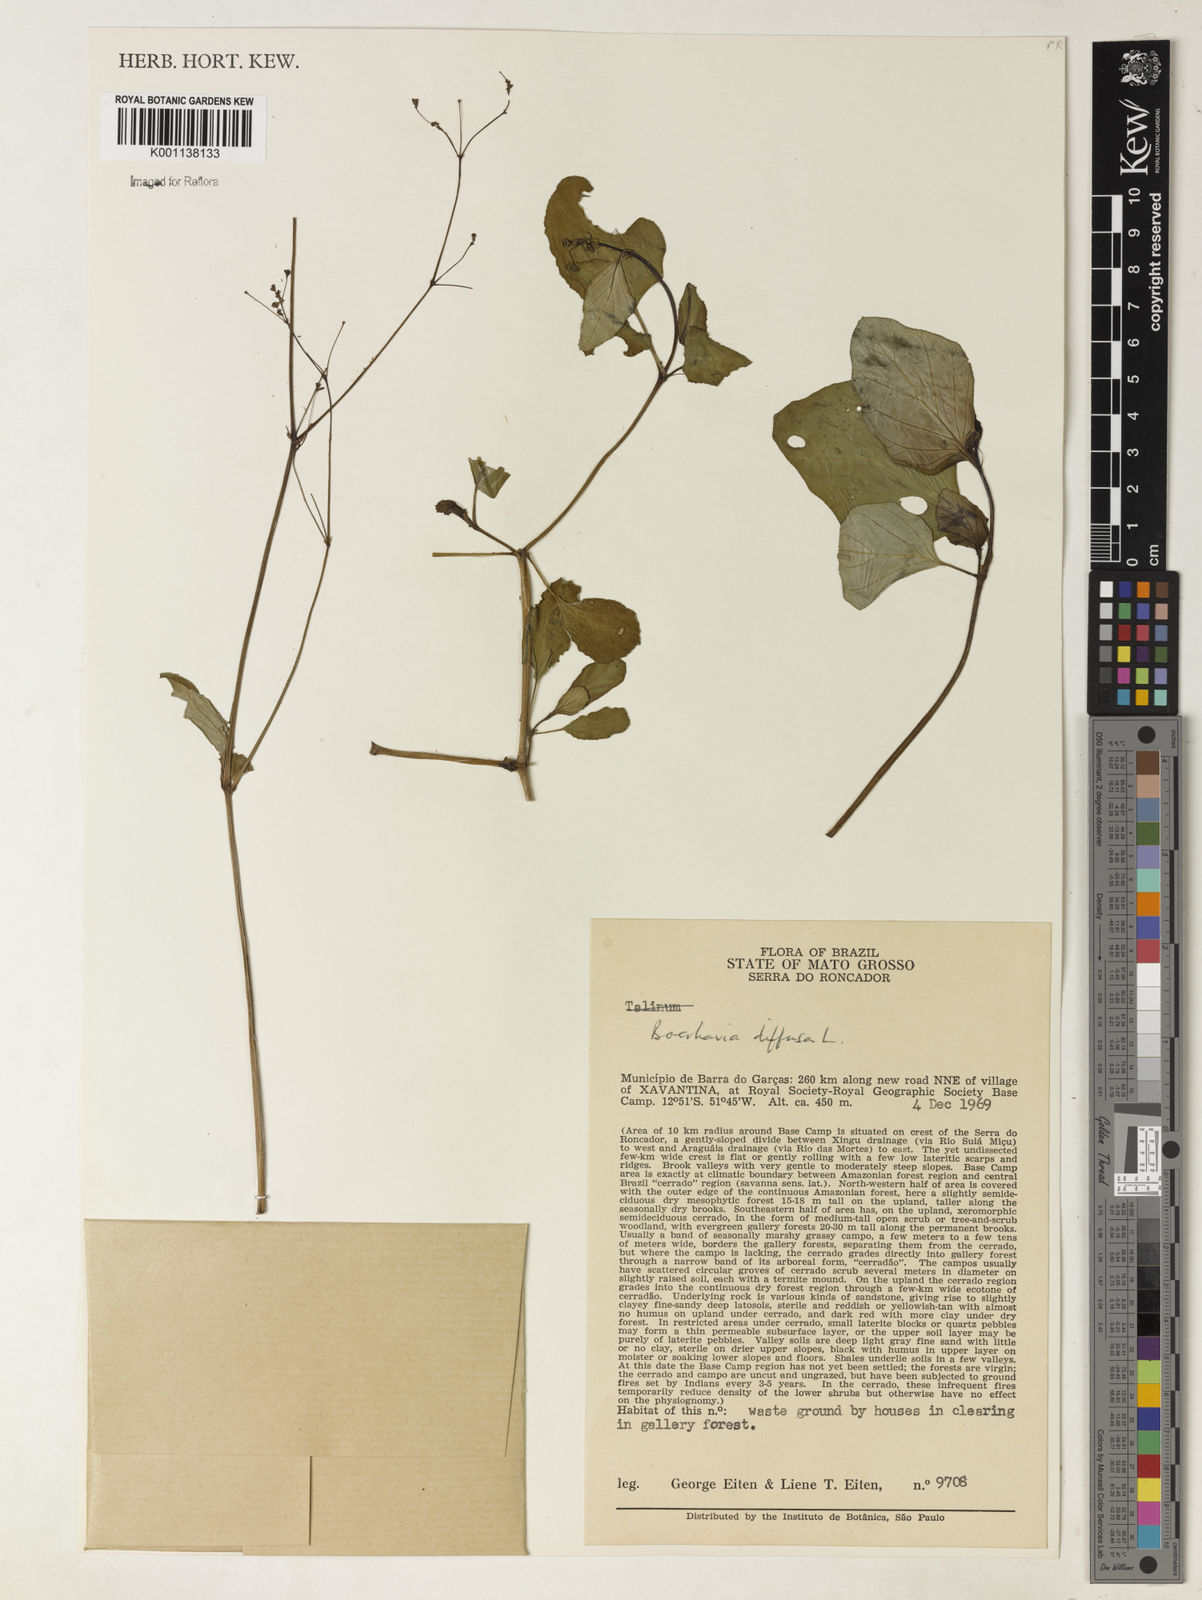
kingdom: Plantae
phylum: Tracheophyta
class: Magnoliopsida
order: Caryophyllales
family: Nyctaginaceae
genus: Boerhavia
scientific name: Boerhavia diffusa
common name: Red spiderling
